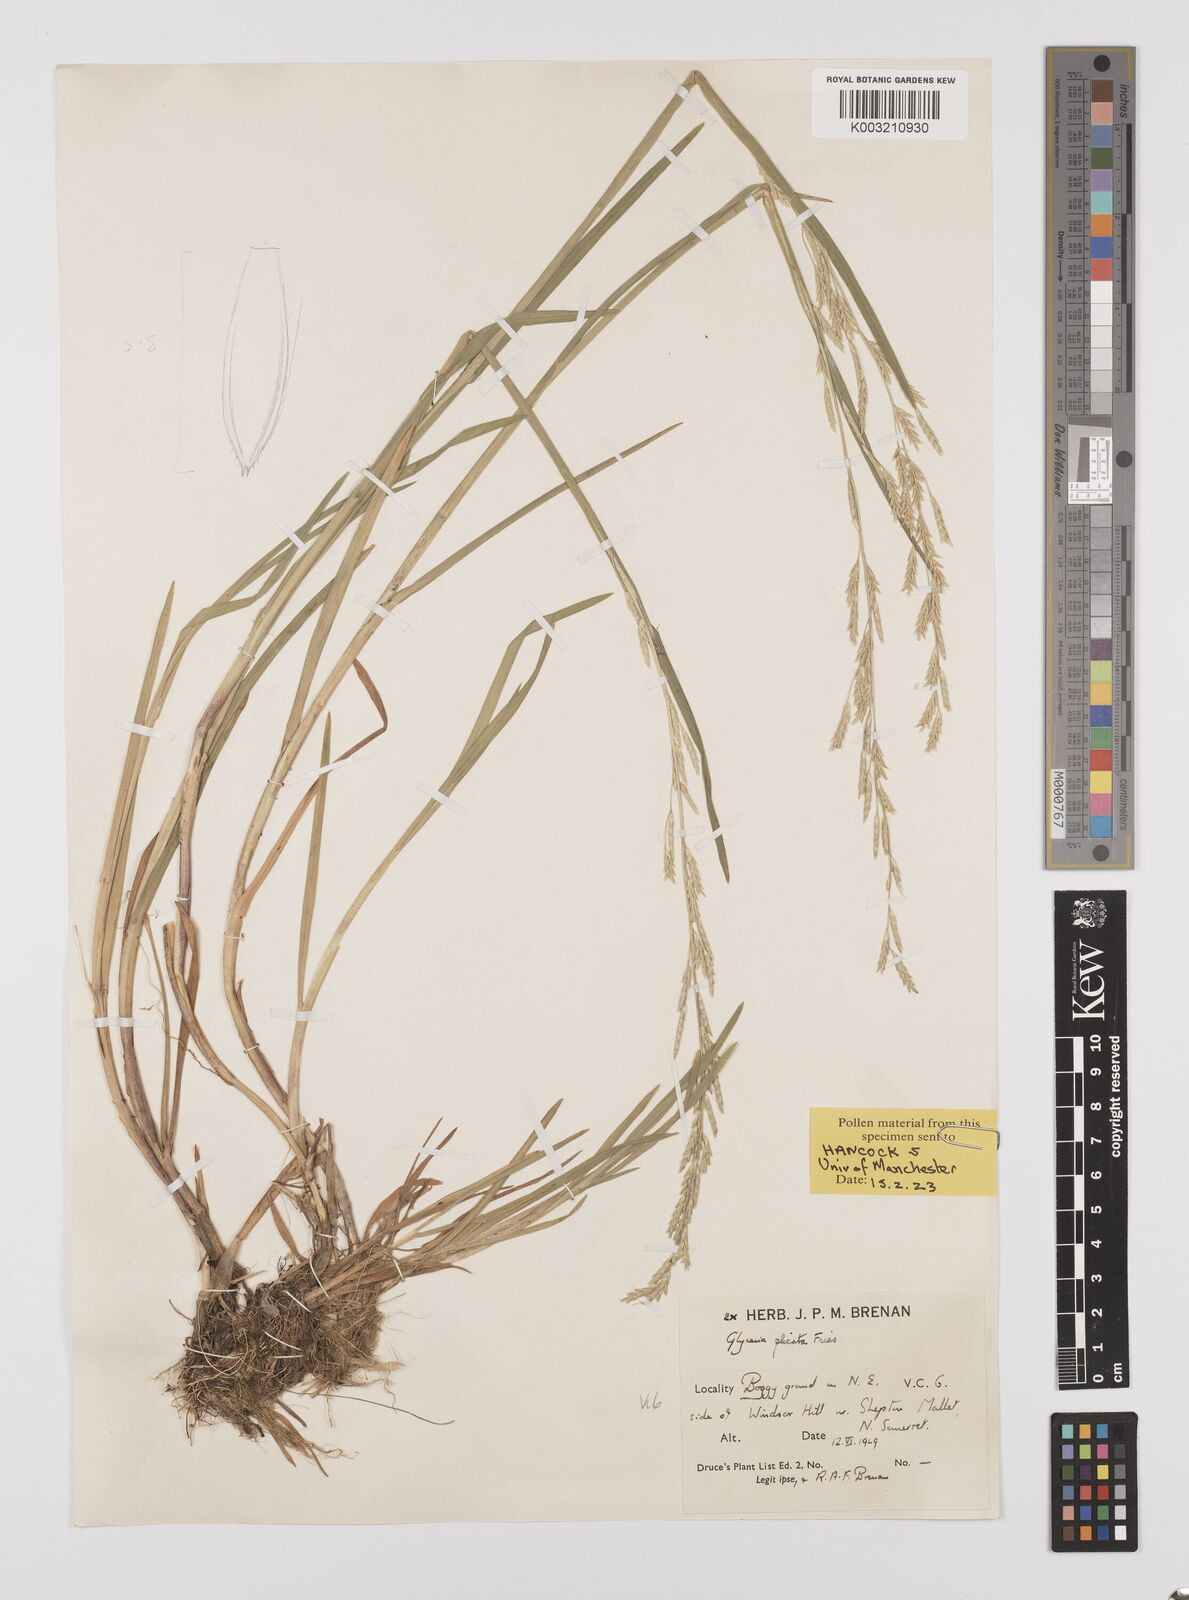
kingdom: Plantae
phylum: Tracheophyta
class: Liliopsida
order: Poales
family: Poaceae
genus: Glyceria
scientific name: Glyceria notata
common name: Plicate sweet-grass
